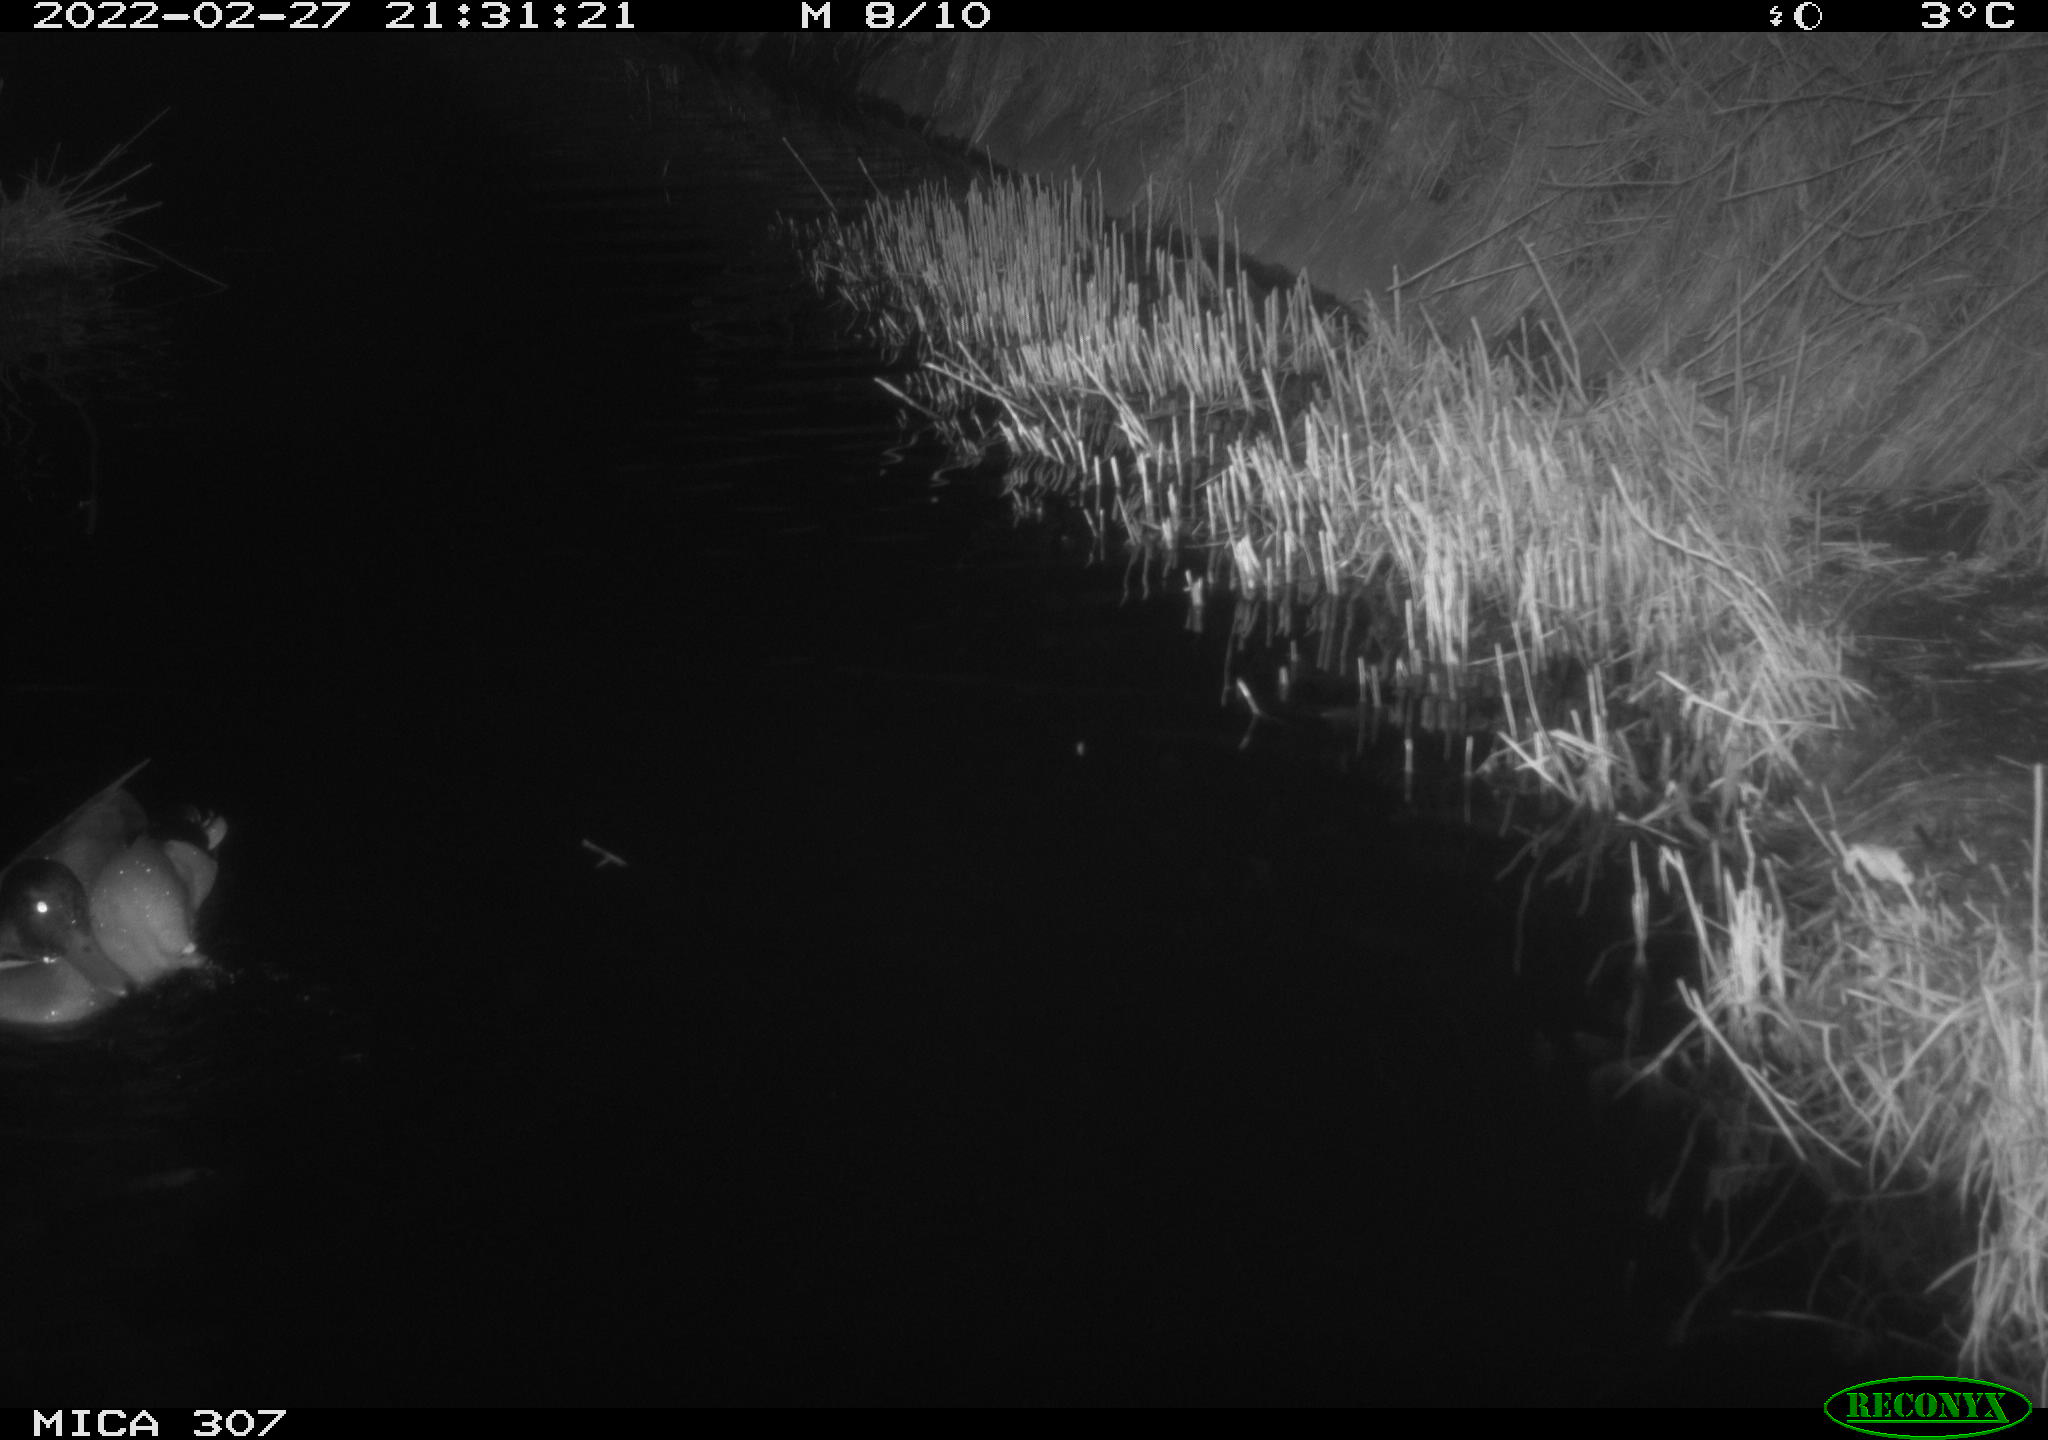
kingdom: Animalia
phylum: Chordata
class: Aves
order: Anseriformes
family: Anatidae
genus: Anas
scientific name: Anas platyrhynchos
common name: Mallard
